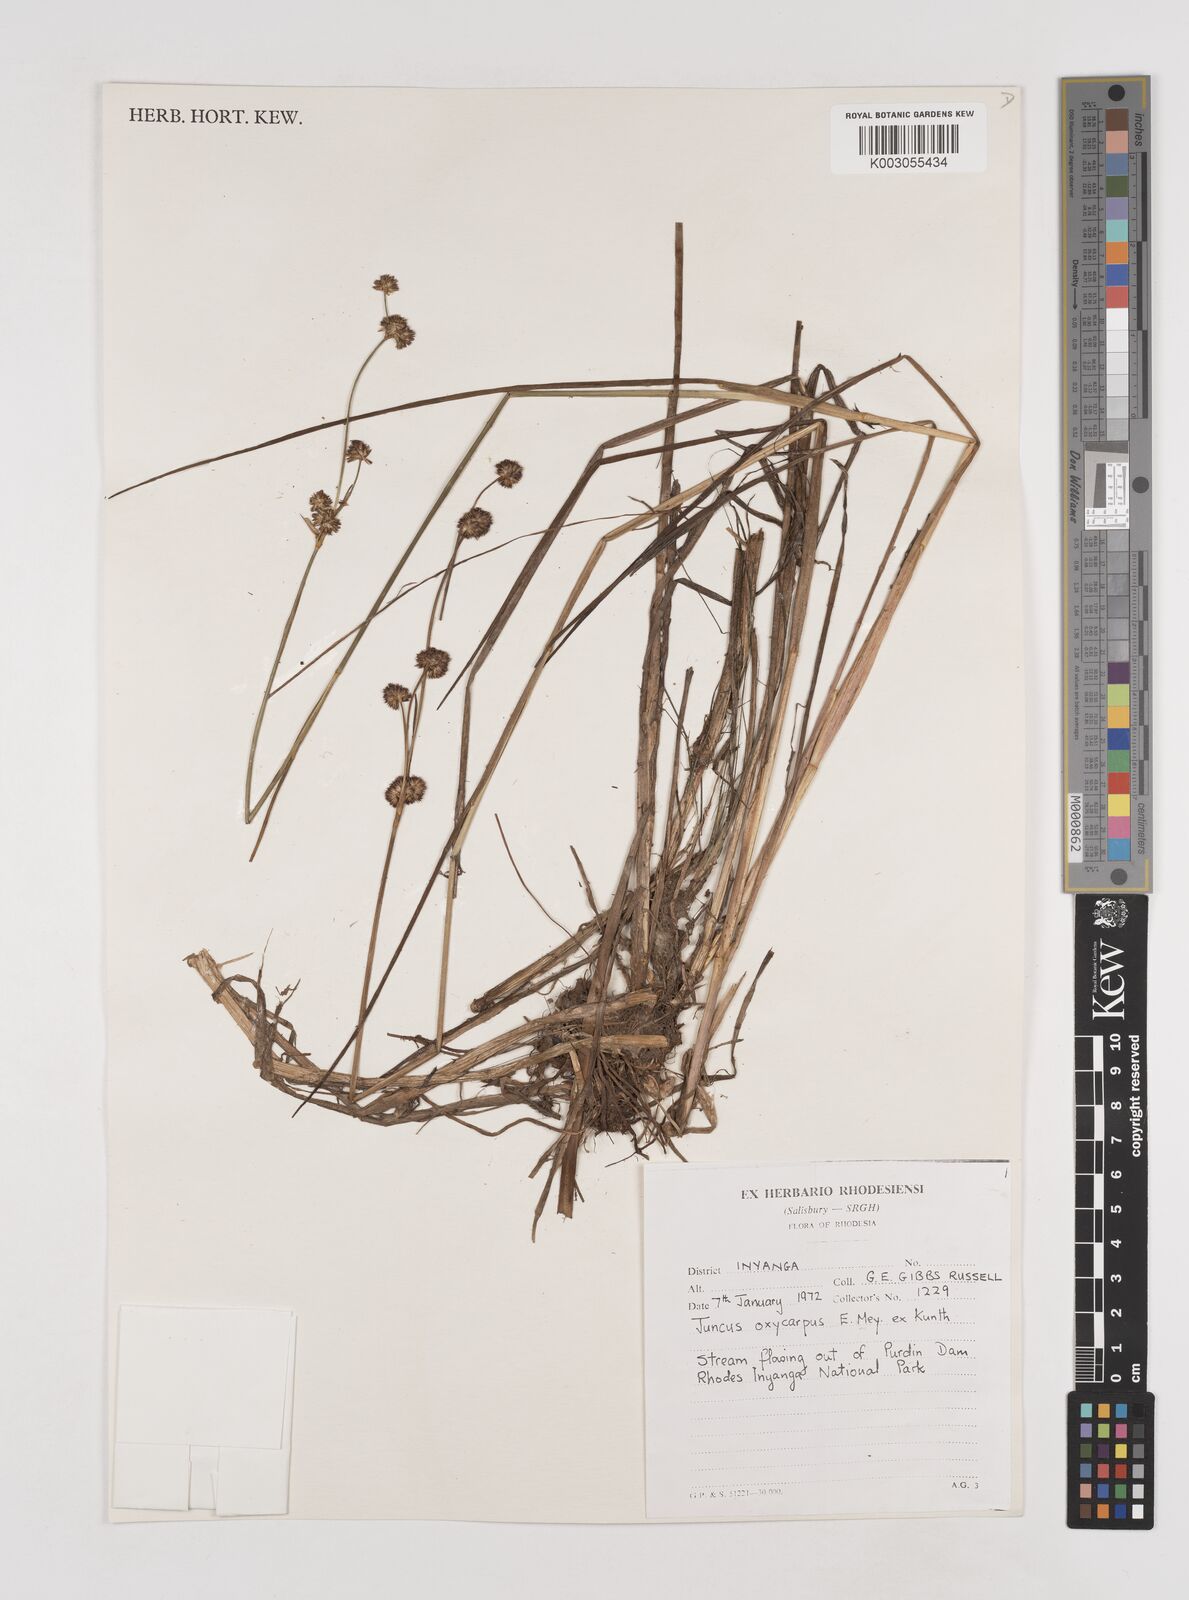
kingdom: Plantae
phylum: Tracheophyta
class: Liliopsida
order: Poales
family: Juncaceae
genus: Juncus
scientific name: Juncus oxycarpus
